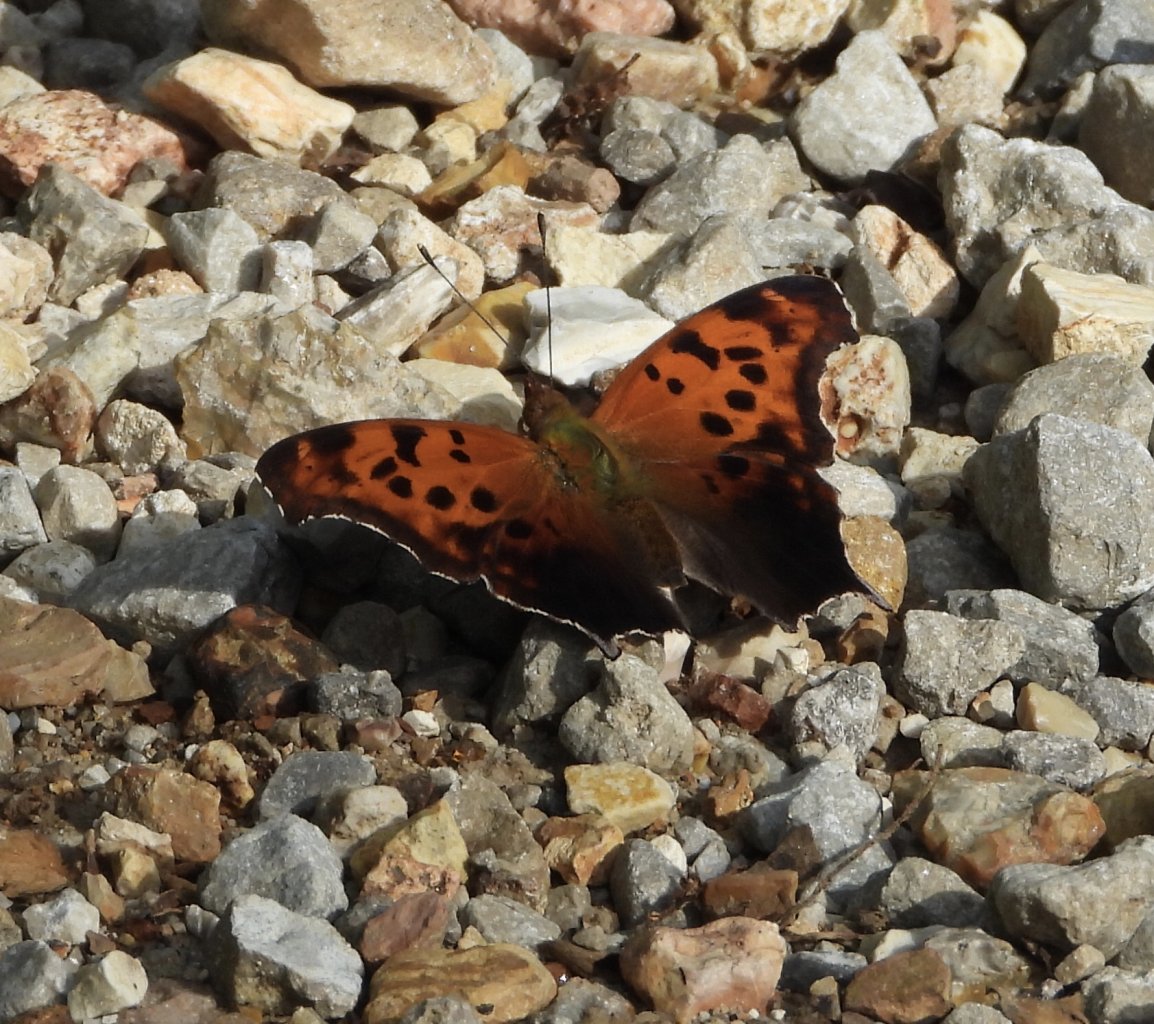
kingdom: Animalia
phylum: Arthropoda
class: Insecta
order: Lepidoptera
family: Nymphalidae
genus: Polygonia
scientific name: Polygonia interrogationis
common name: Question Mark
